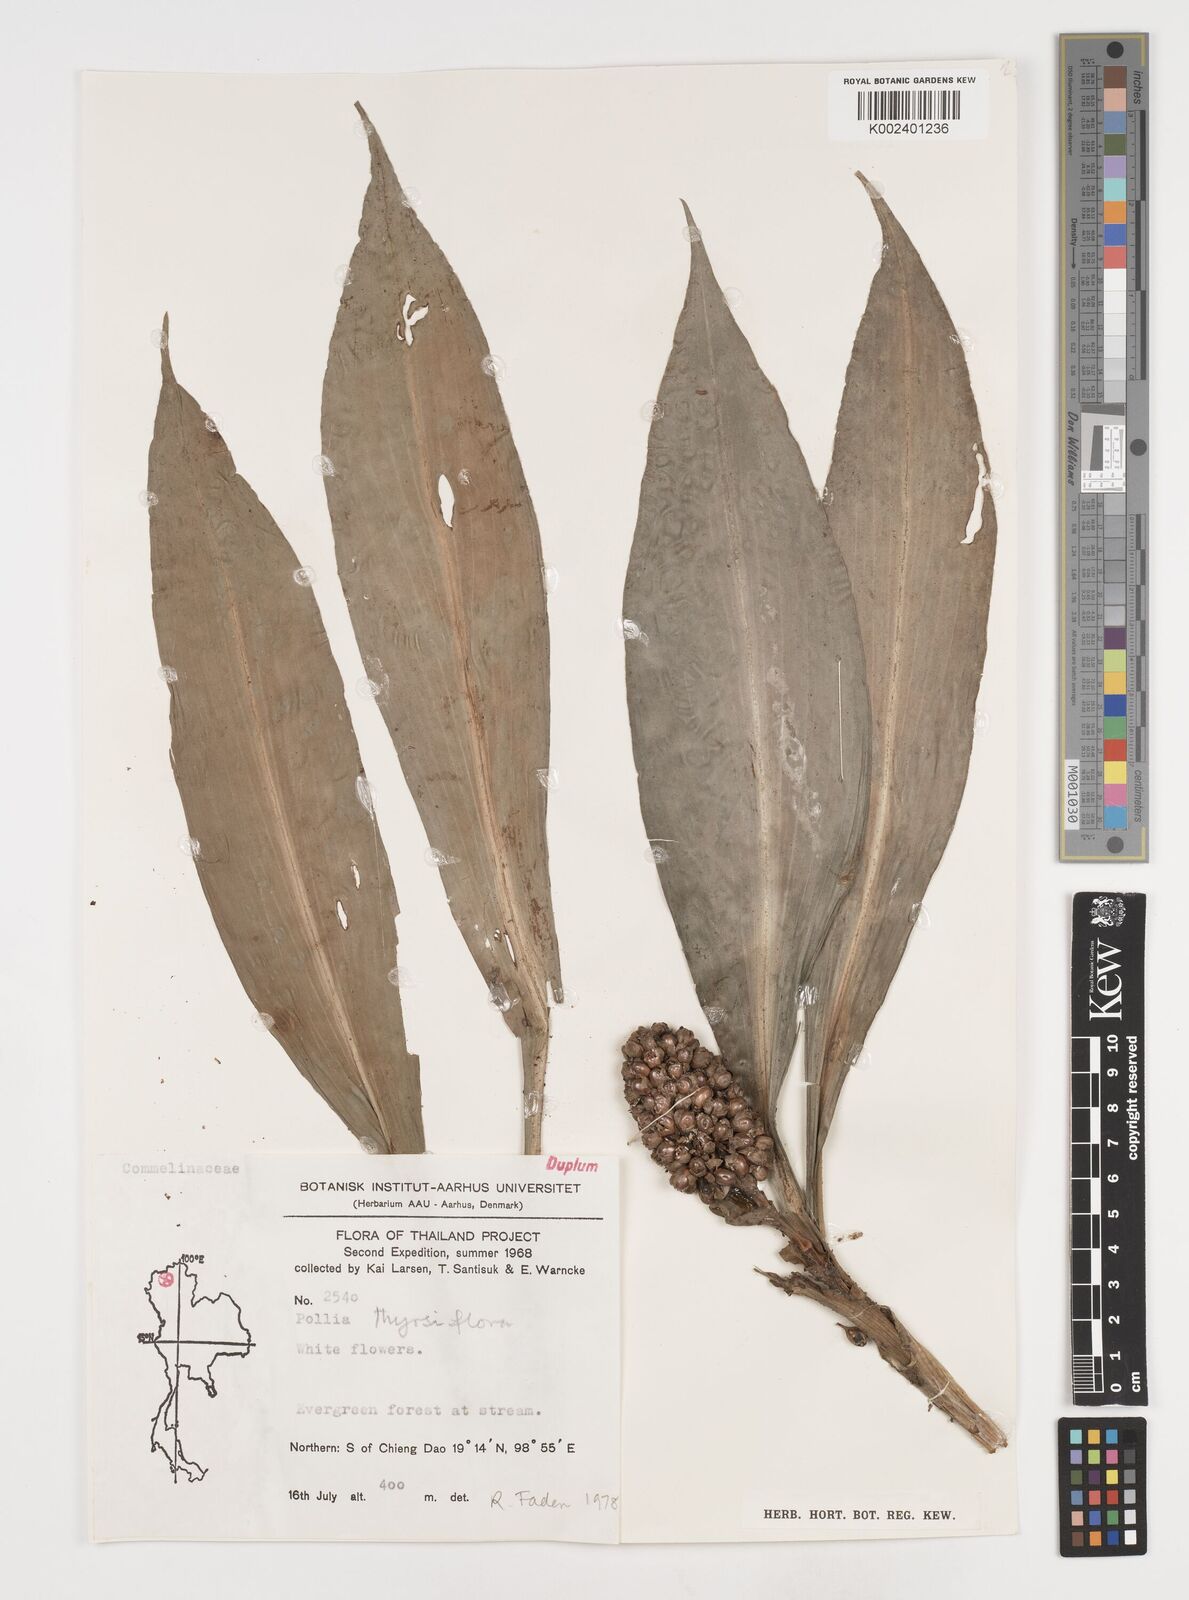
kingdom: Plantae
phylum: Tracheophyta
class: Liliopsida
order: Commelinales
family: Commelinaceae
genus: Pollia
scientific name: Pollia thyrsiflora
